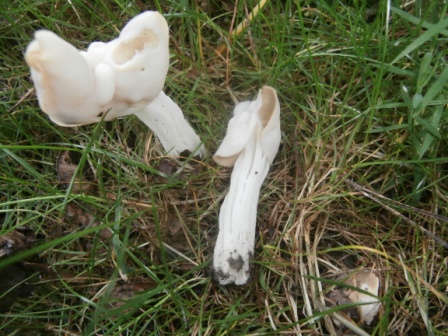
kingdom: Fungi
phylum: Ascomycota
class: Pezizomycetes
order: Pezizales
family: Helvellaceae
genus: Helvella
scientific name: Helvella crispa
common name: kruset foldhat
